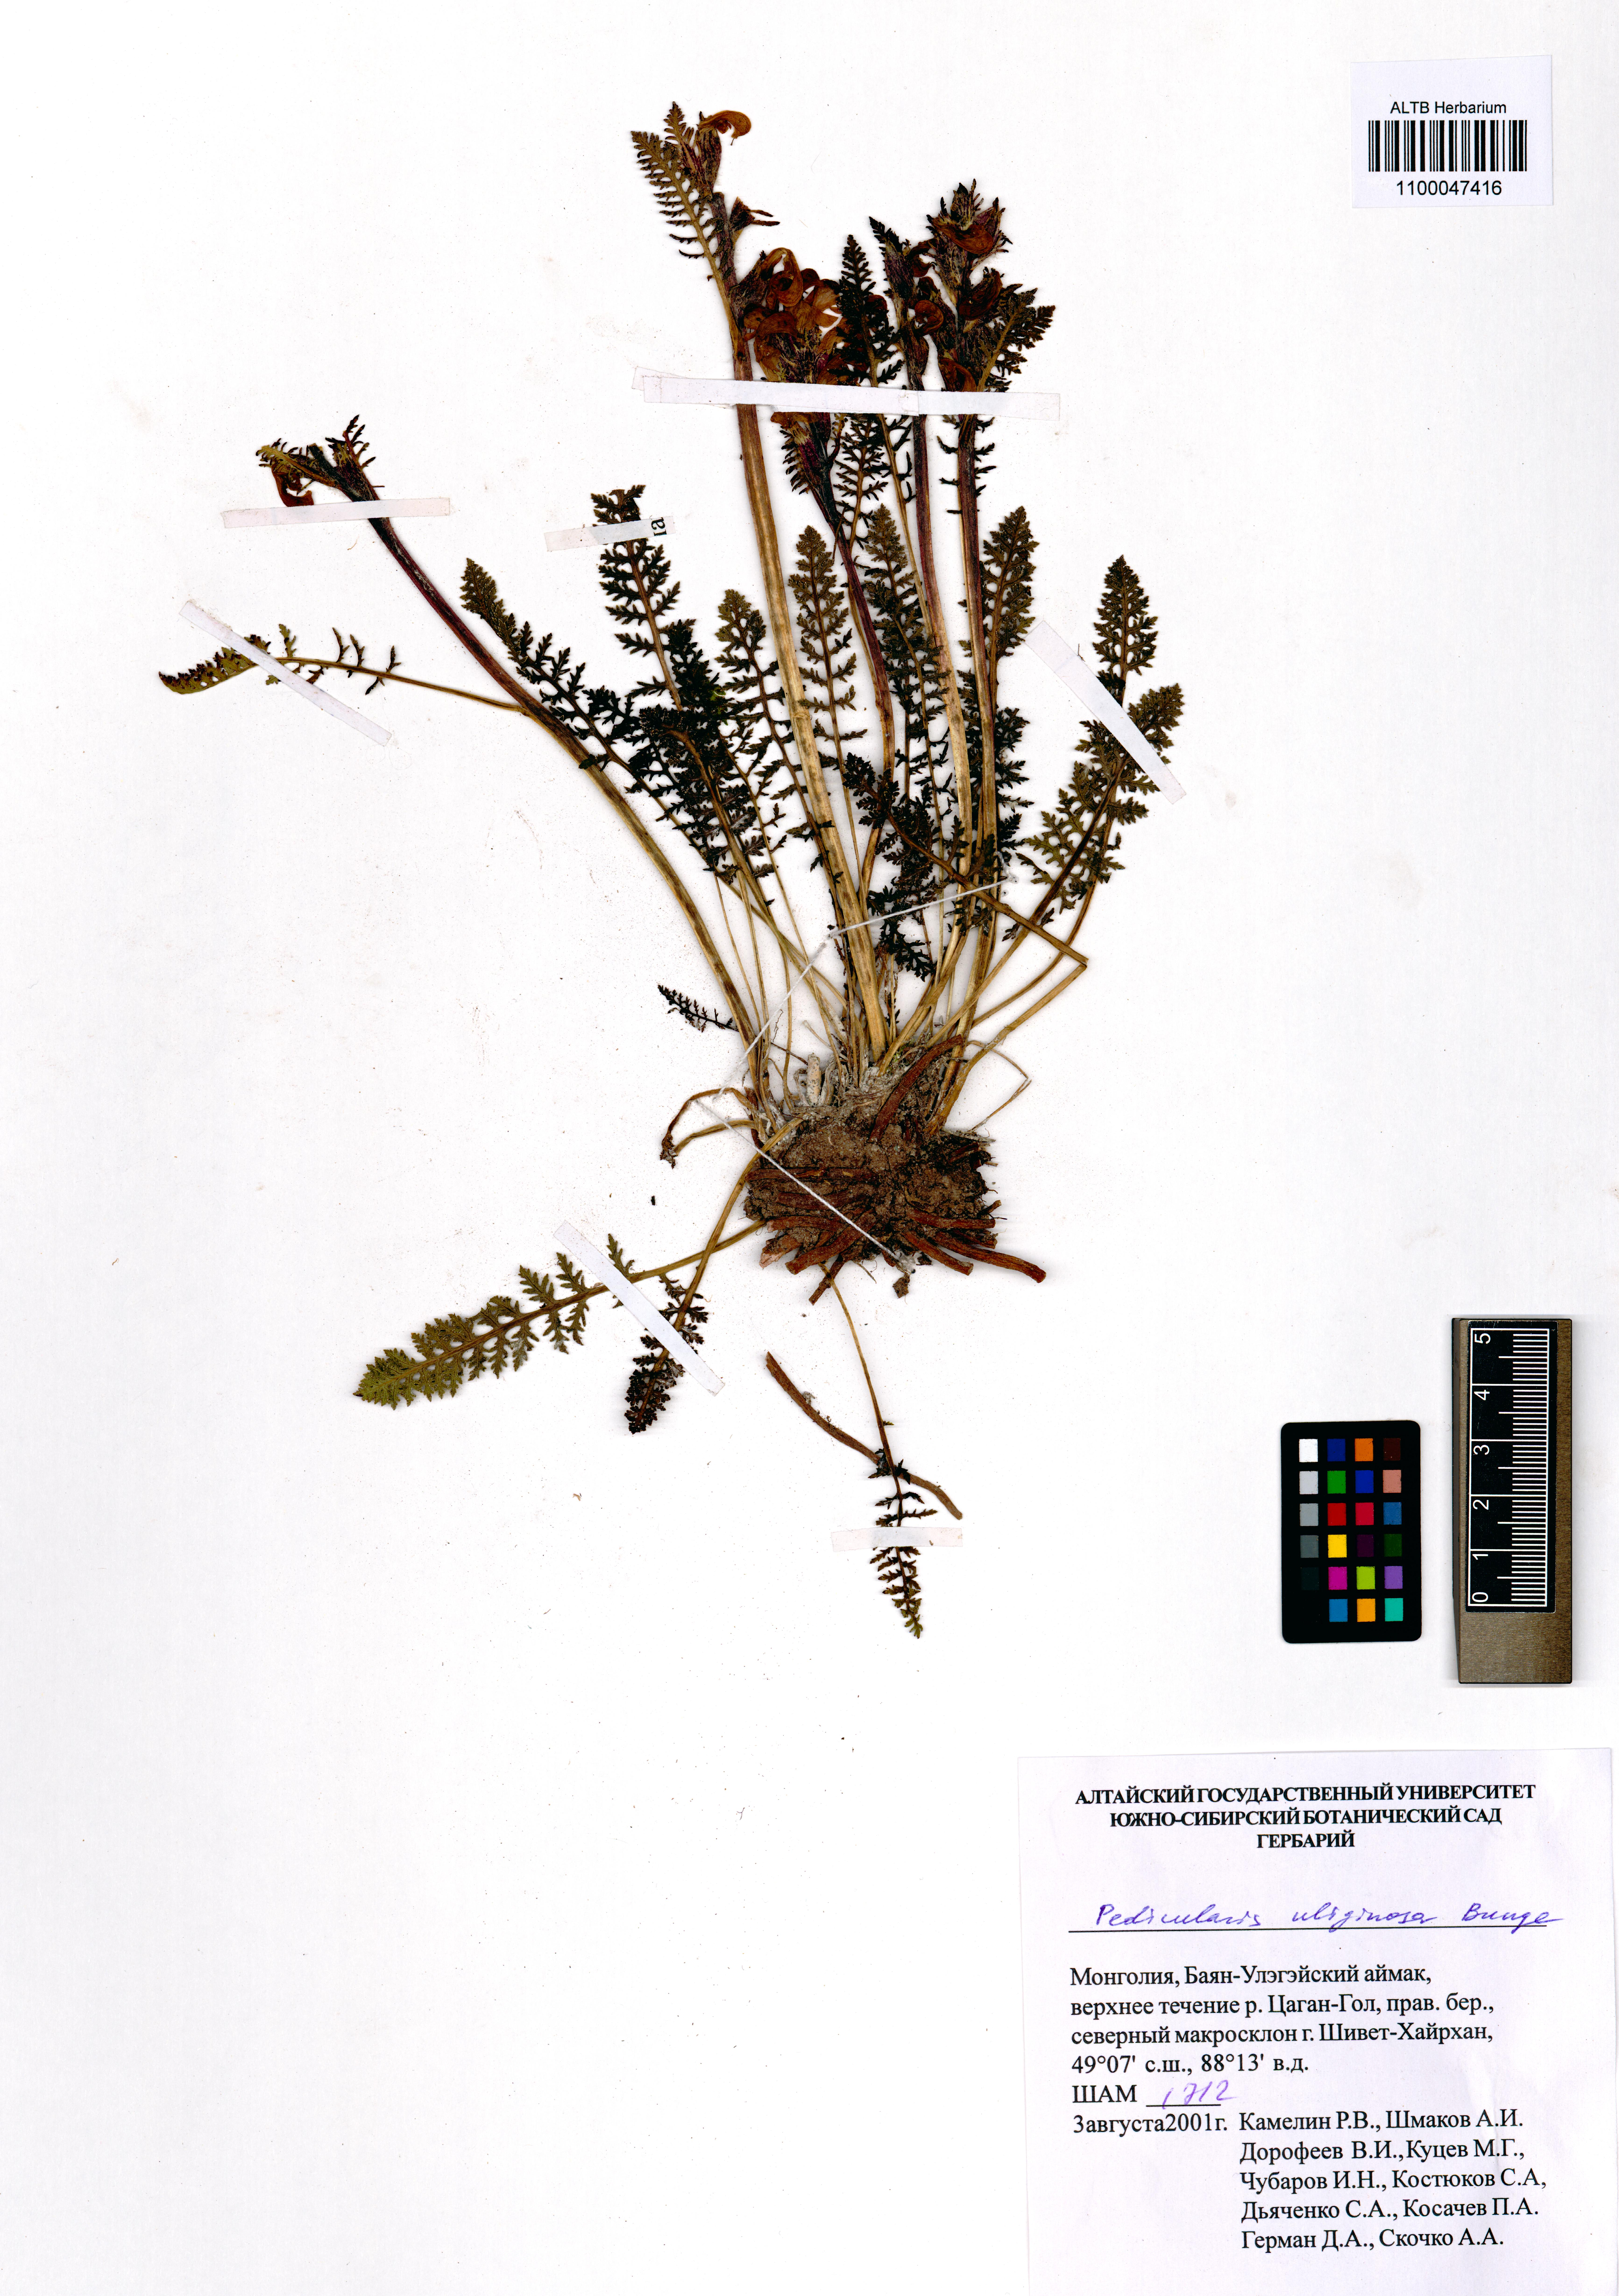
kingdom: Plantae
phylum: Tracheophyta
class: Magnoliopsida
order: Lamiales
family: Orobanchaceae
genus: Pedicularis
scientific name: Pedicularis uliginosa
